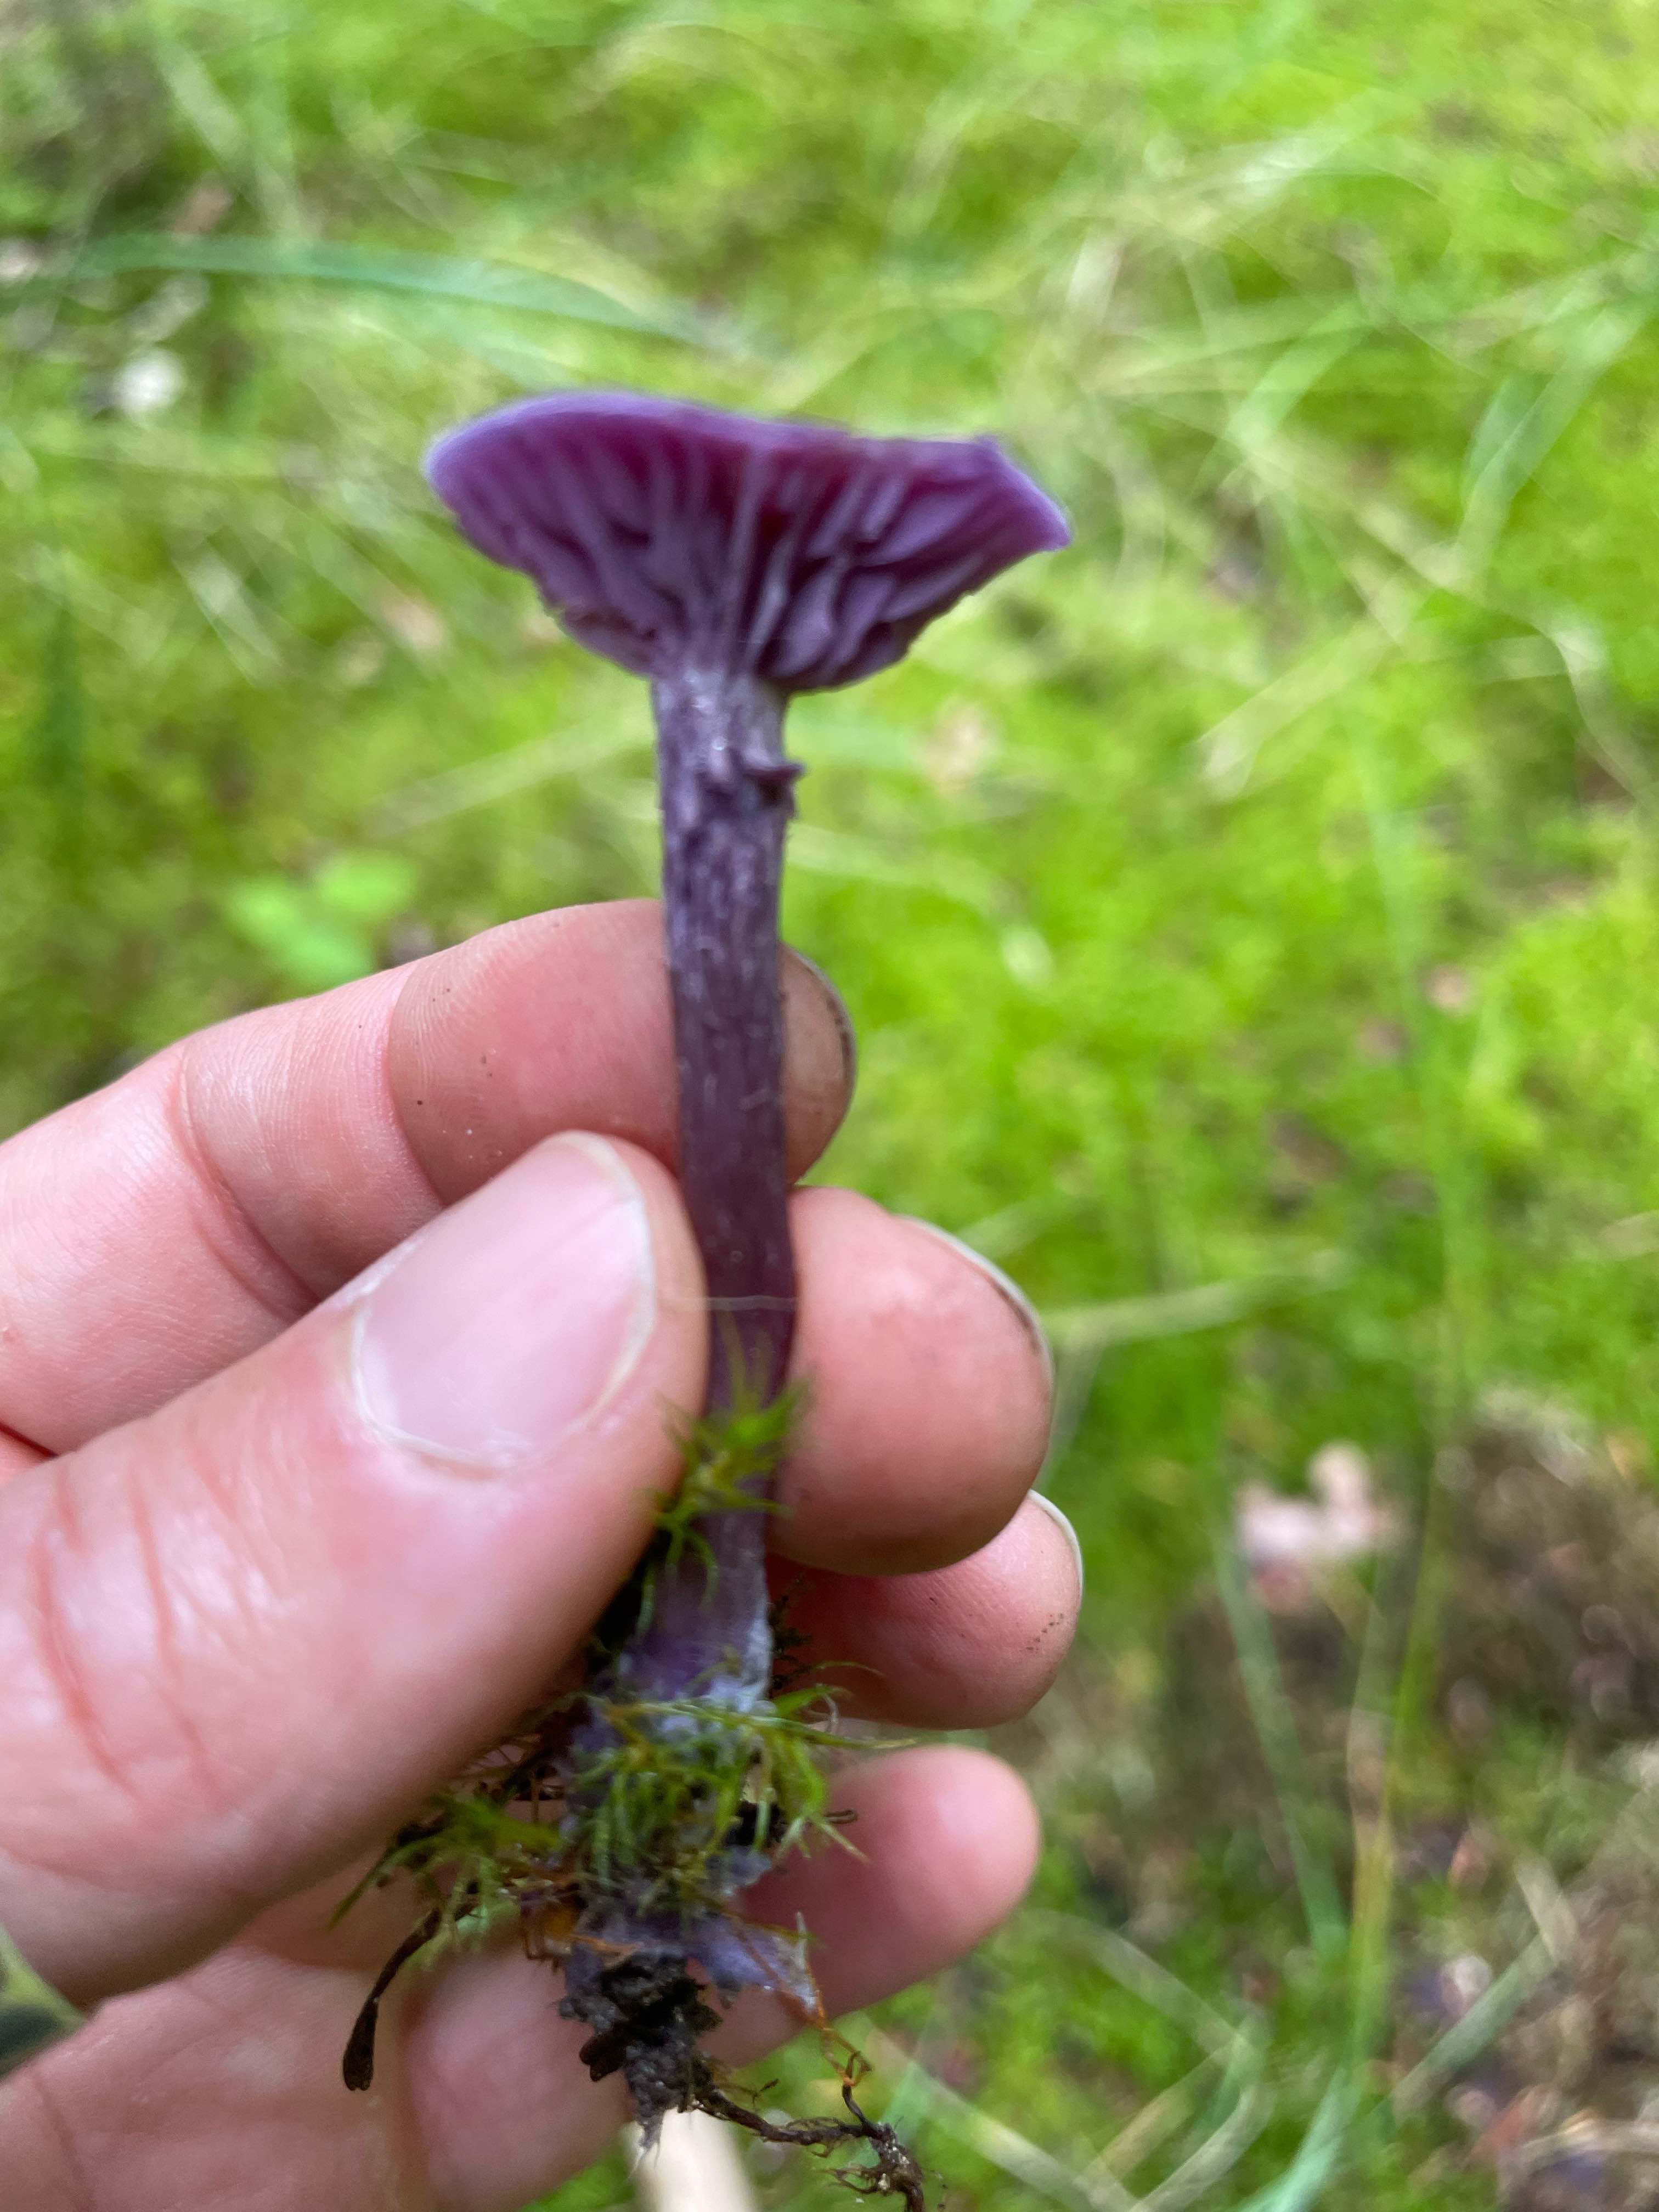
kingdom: Fungi
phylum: Basidiomycota
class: Agaricomycetes
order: Agaricales
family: Hydnangiaceae
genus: Laccaria
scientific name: Laccaria amethystina
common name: violet ametysthat
